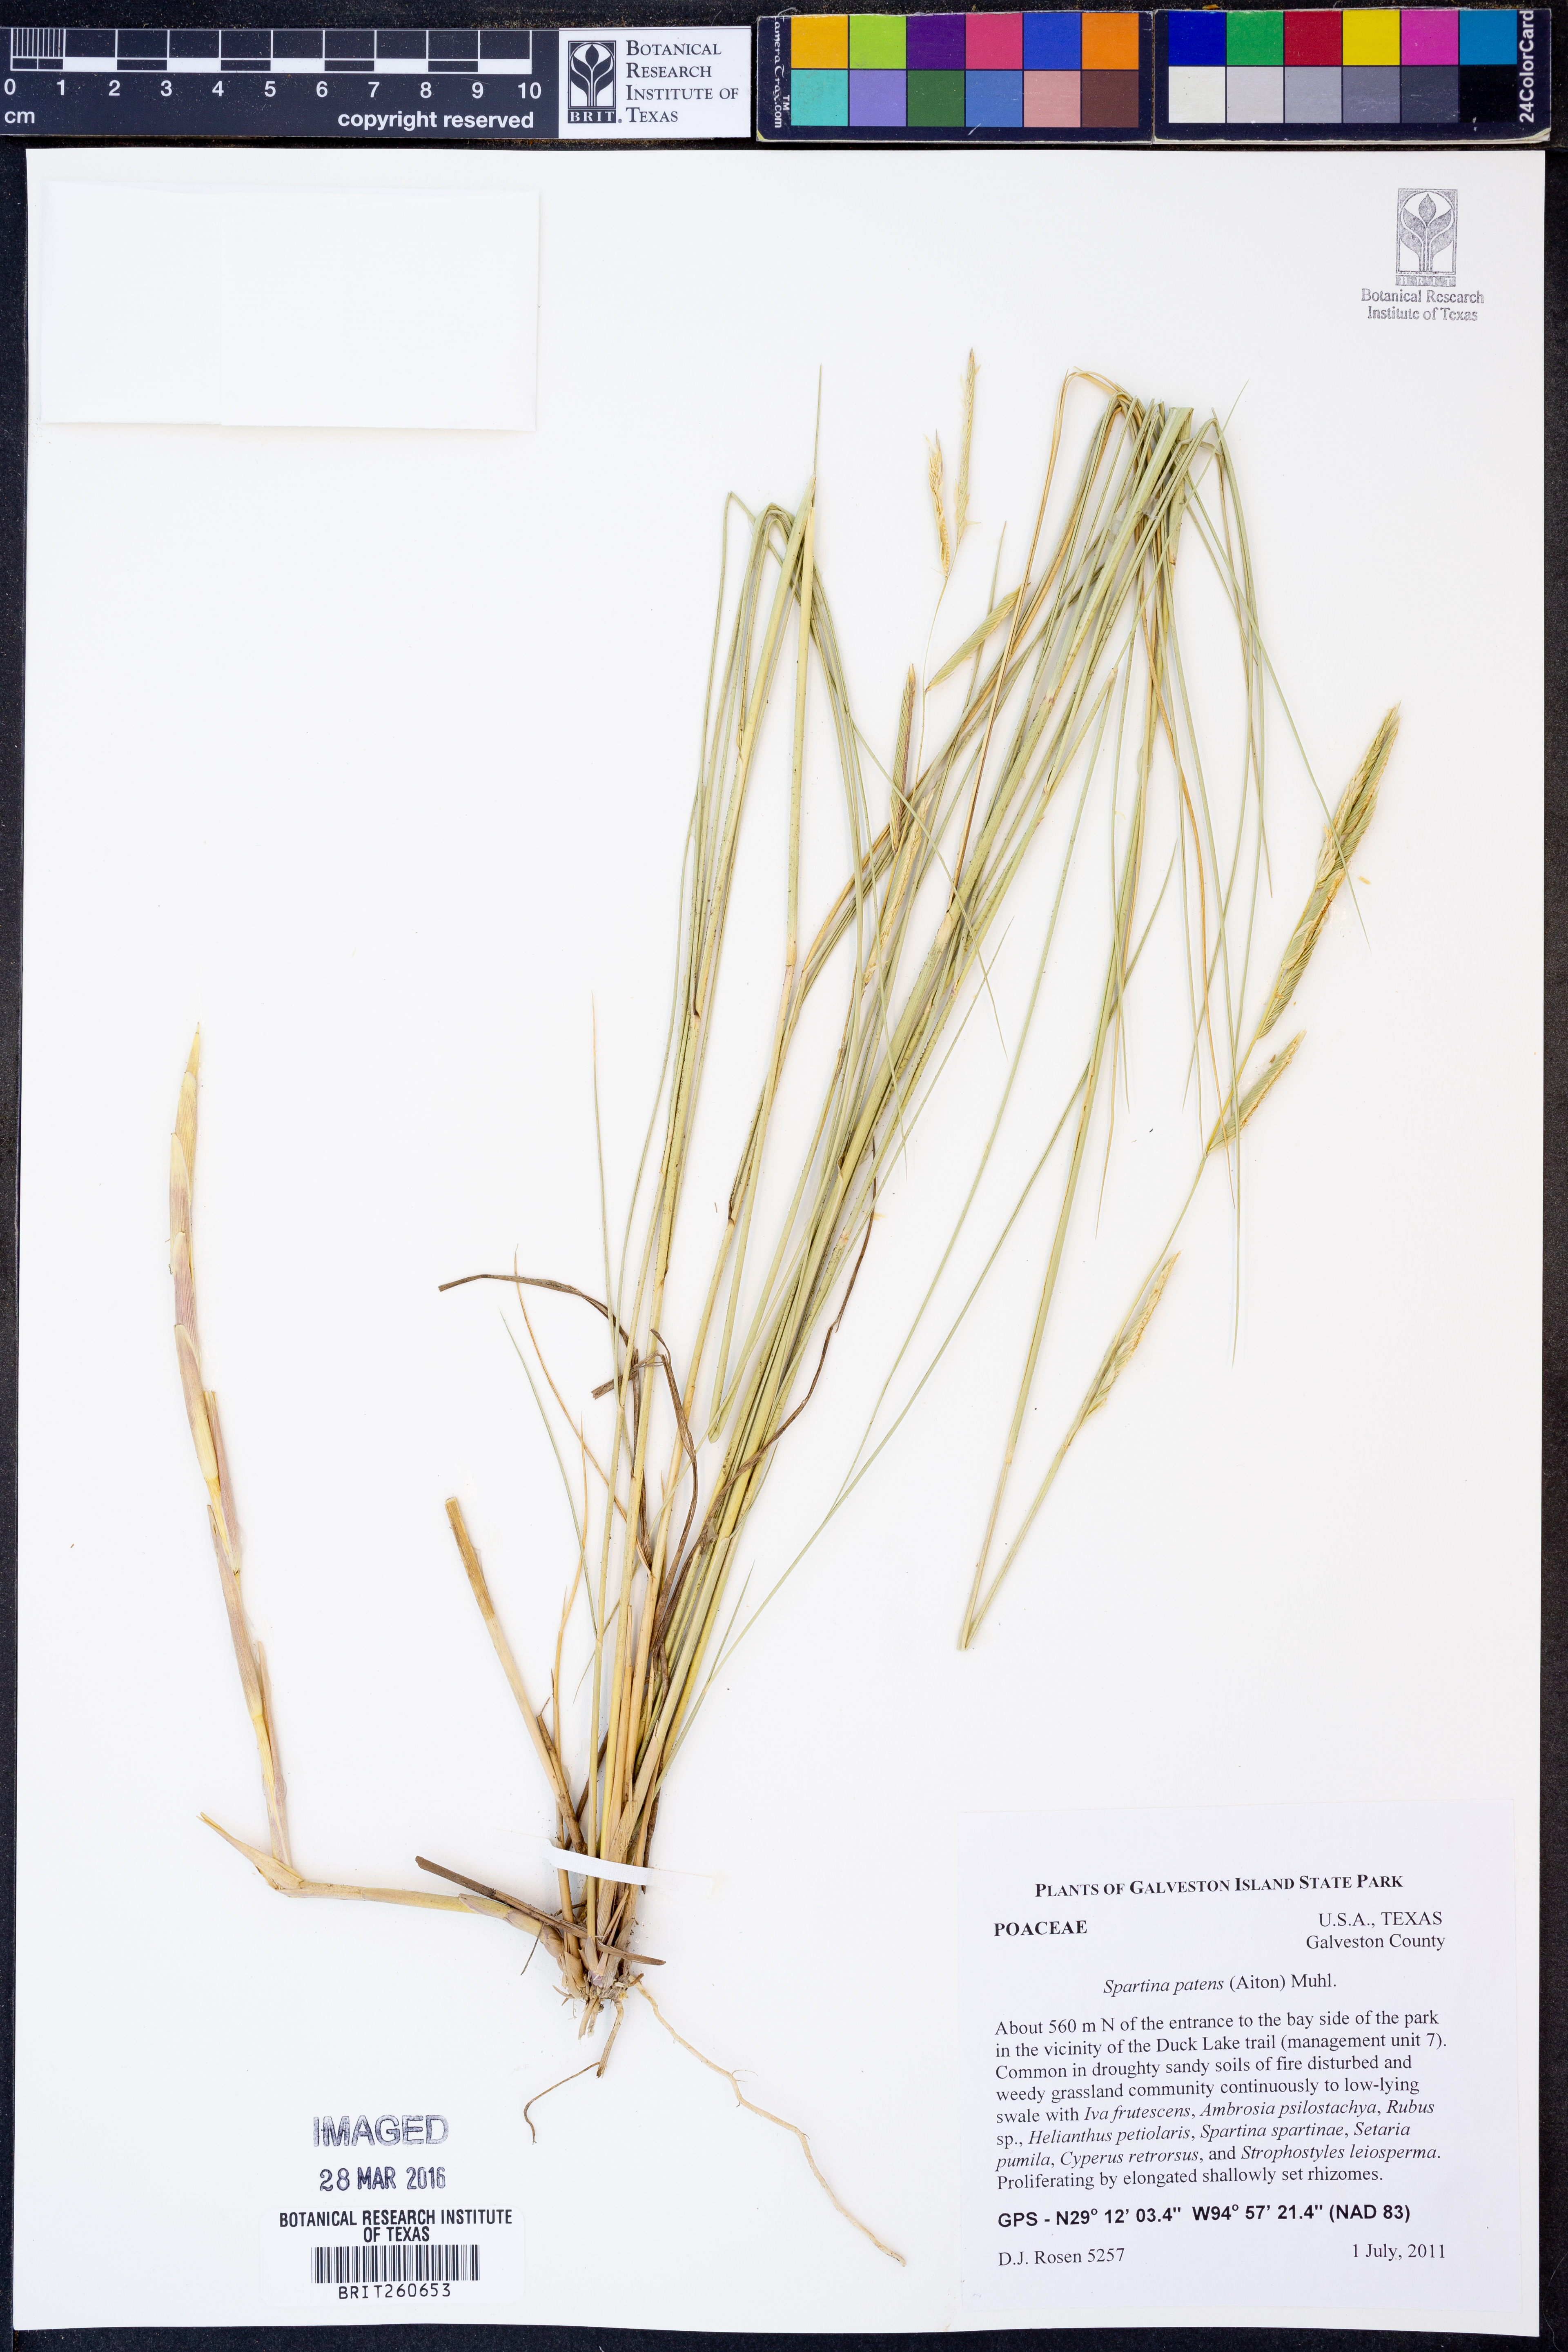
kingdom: Plantae
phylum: Tracheophyta
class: Liliopsida
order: Poales
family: Poaceae
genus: Sporobolus
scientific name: Sporobolus pumilus
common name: Highwater grass
